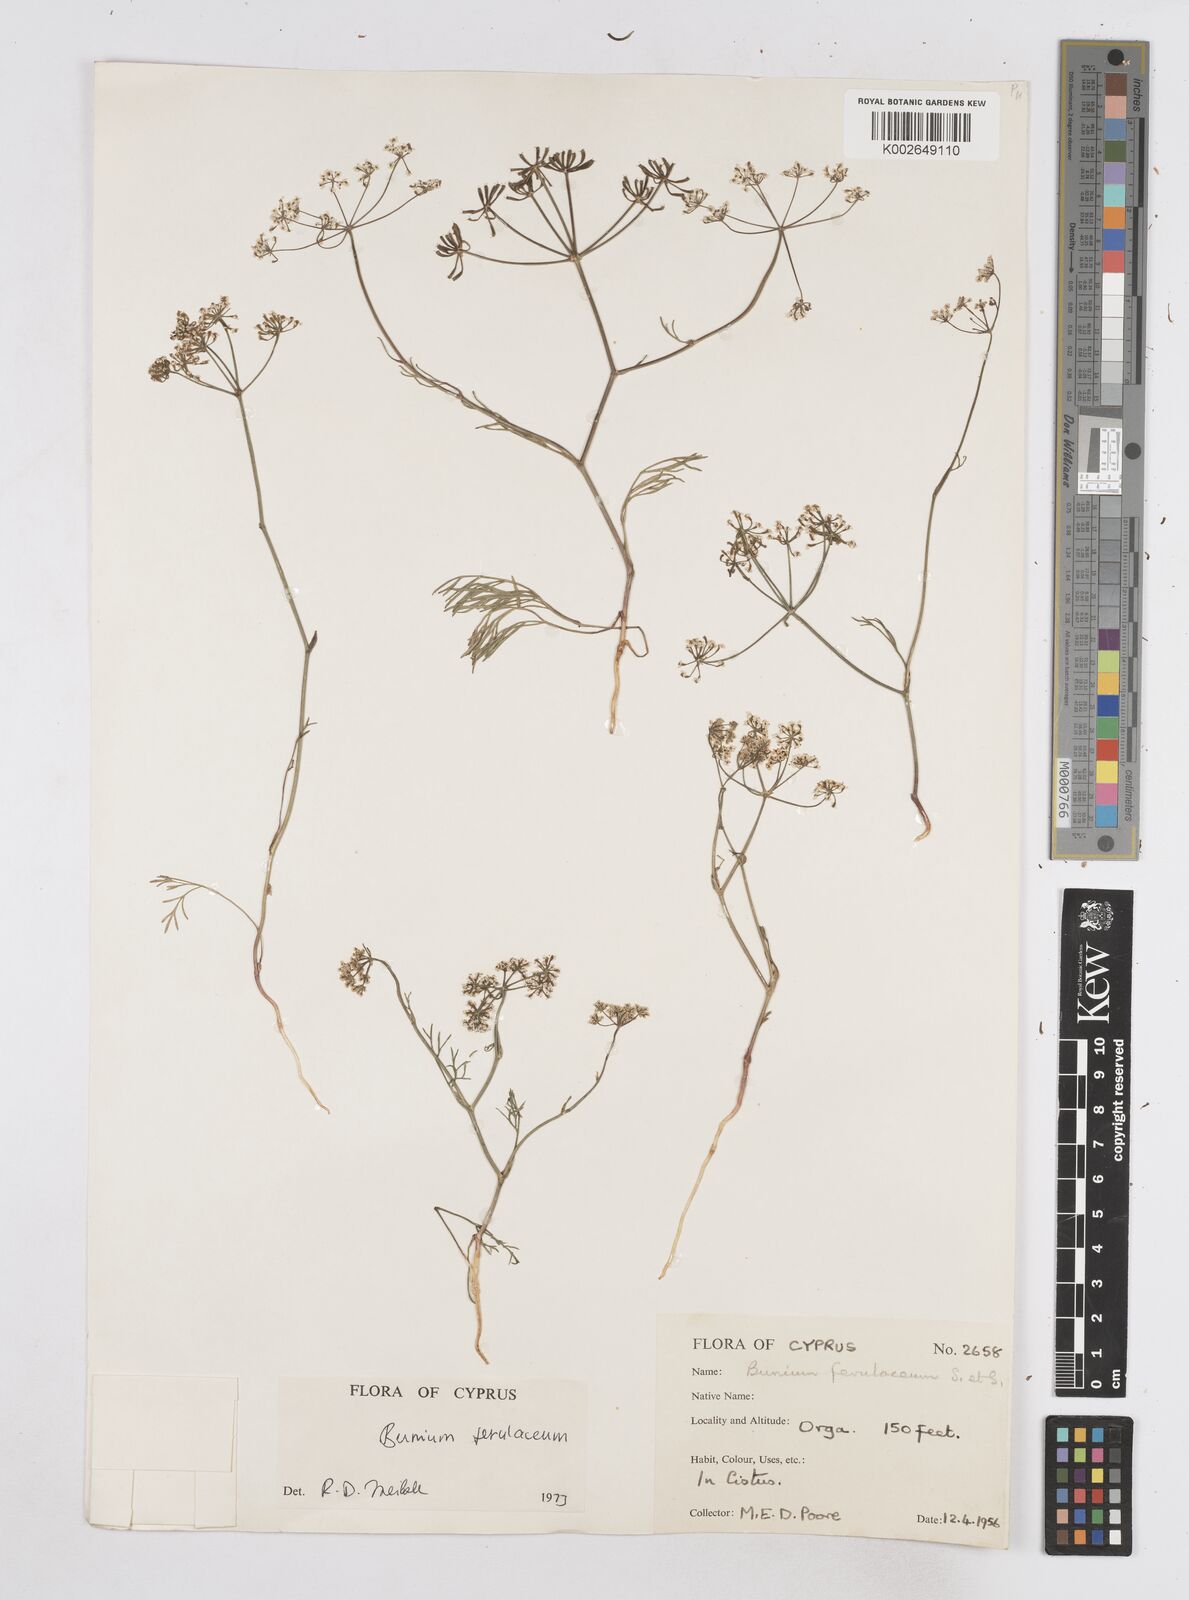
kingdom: Plantae
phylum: Tracheophyta
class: Magnoliopsida
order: Apiales
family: Apiaceae
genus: Bunium
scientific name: Bunium ferulaceum
